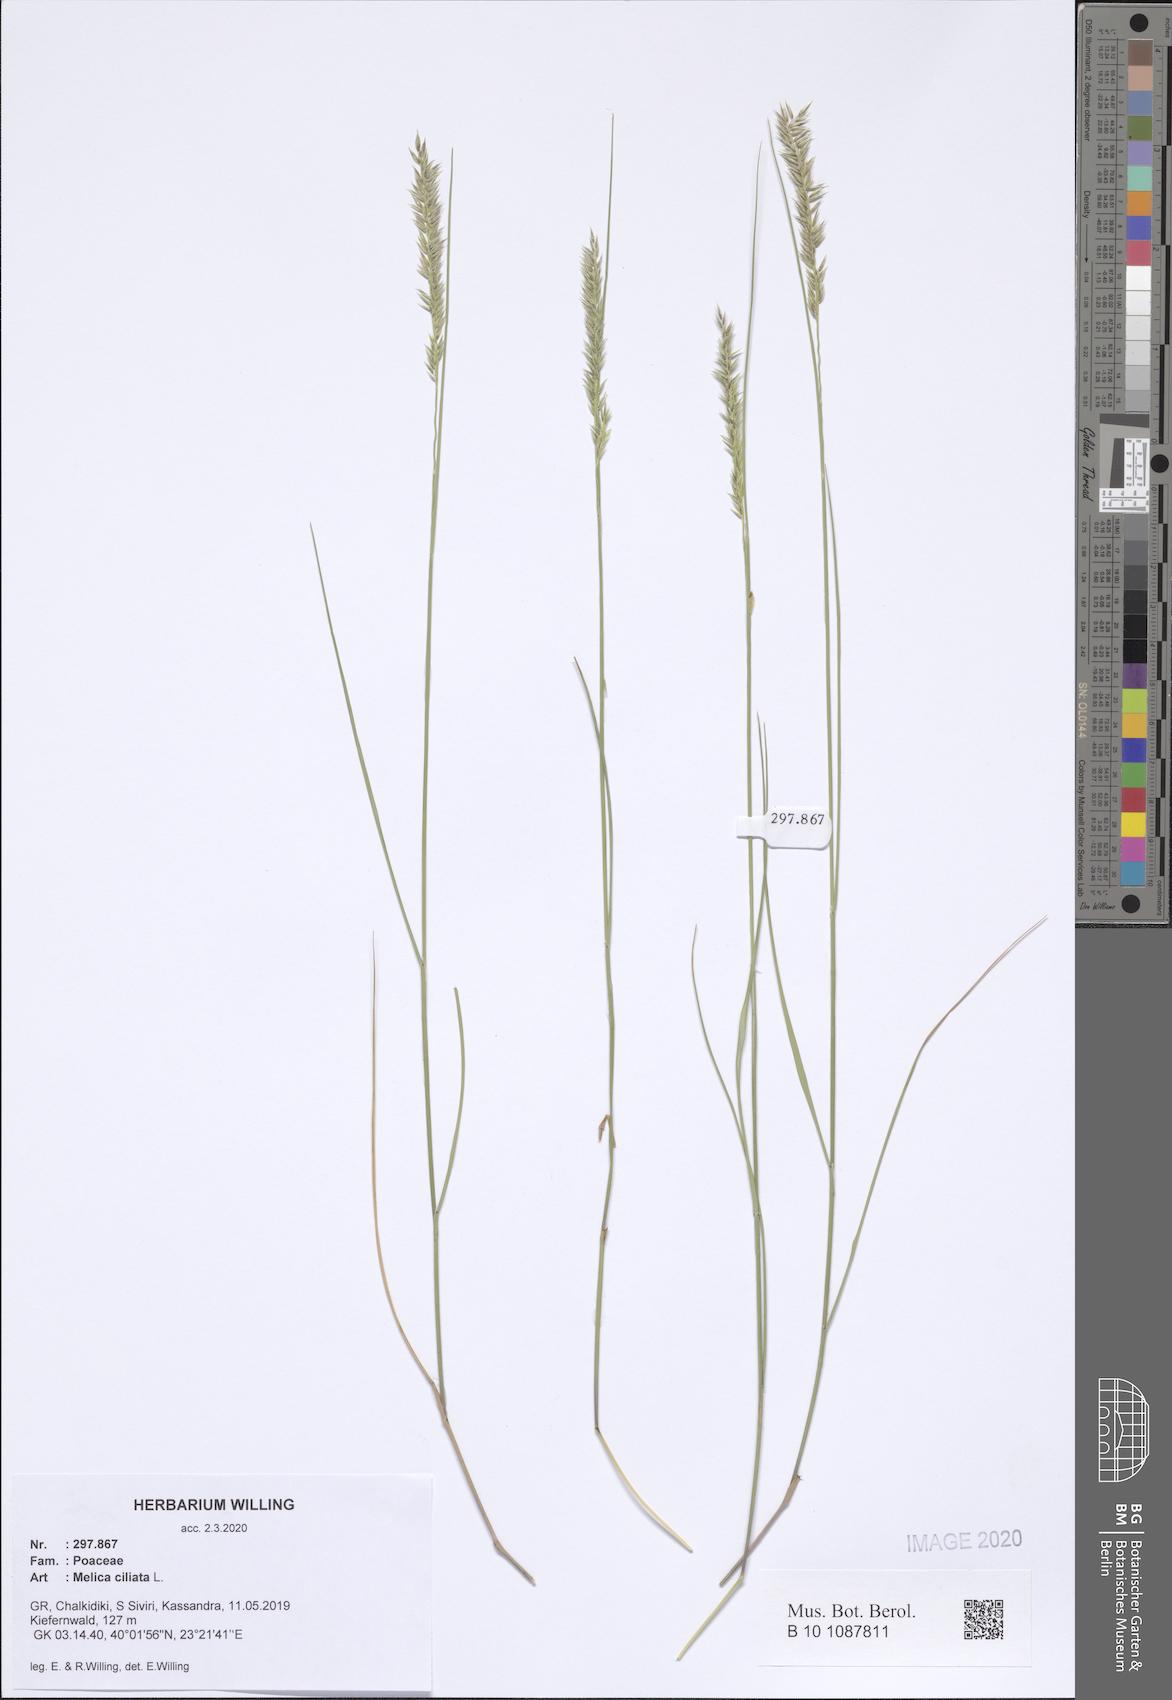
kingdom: Plantae
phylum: Tracheophyta
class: Liliopsida
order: Poales
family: Poaceae
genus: Melica
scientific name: Melica ciliata
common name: Hairy melicgrass
